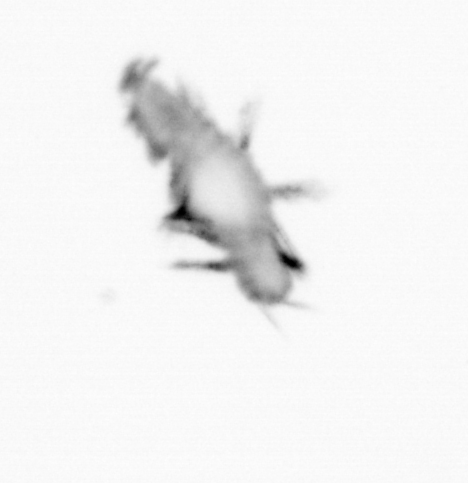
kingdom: Animalia
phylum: Annelida
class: Polychaeta
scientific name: Polychaeta
